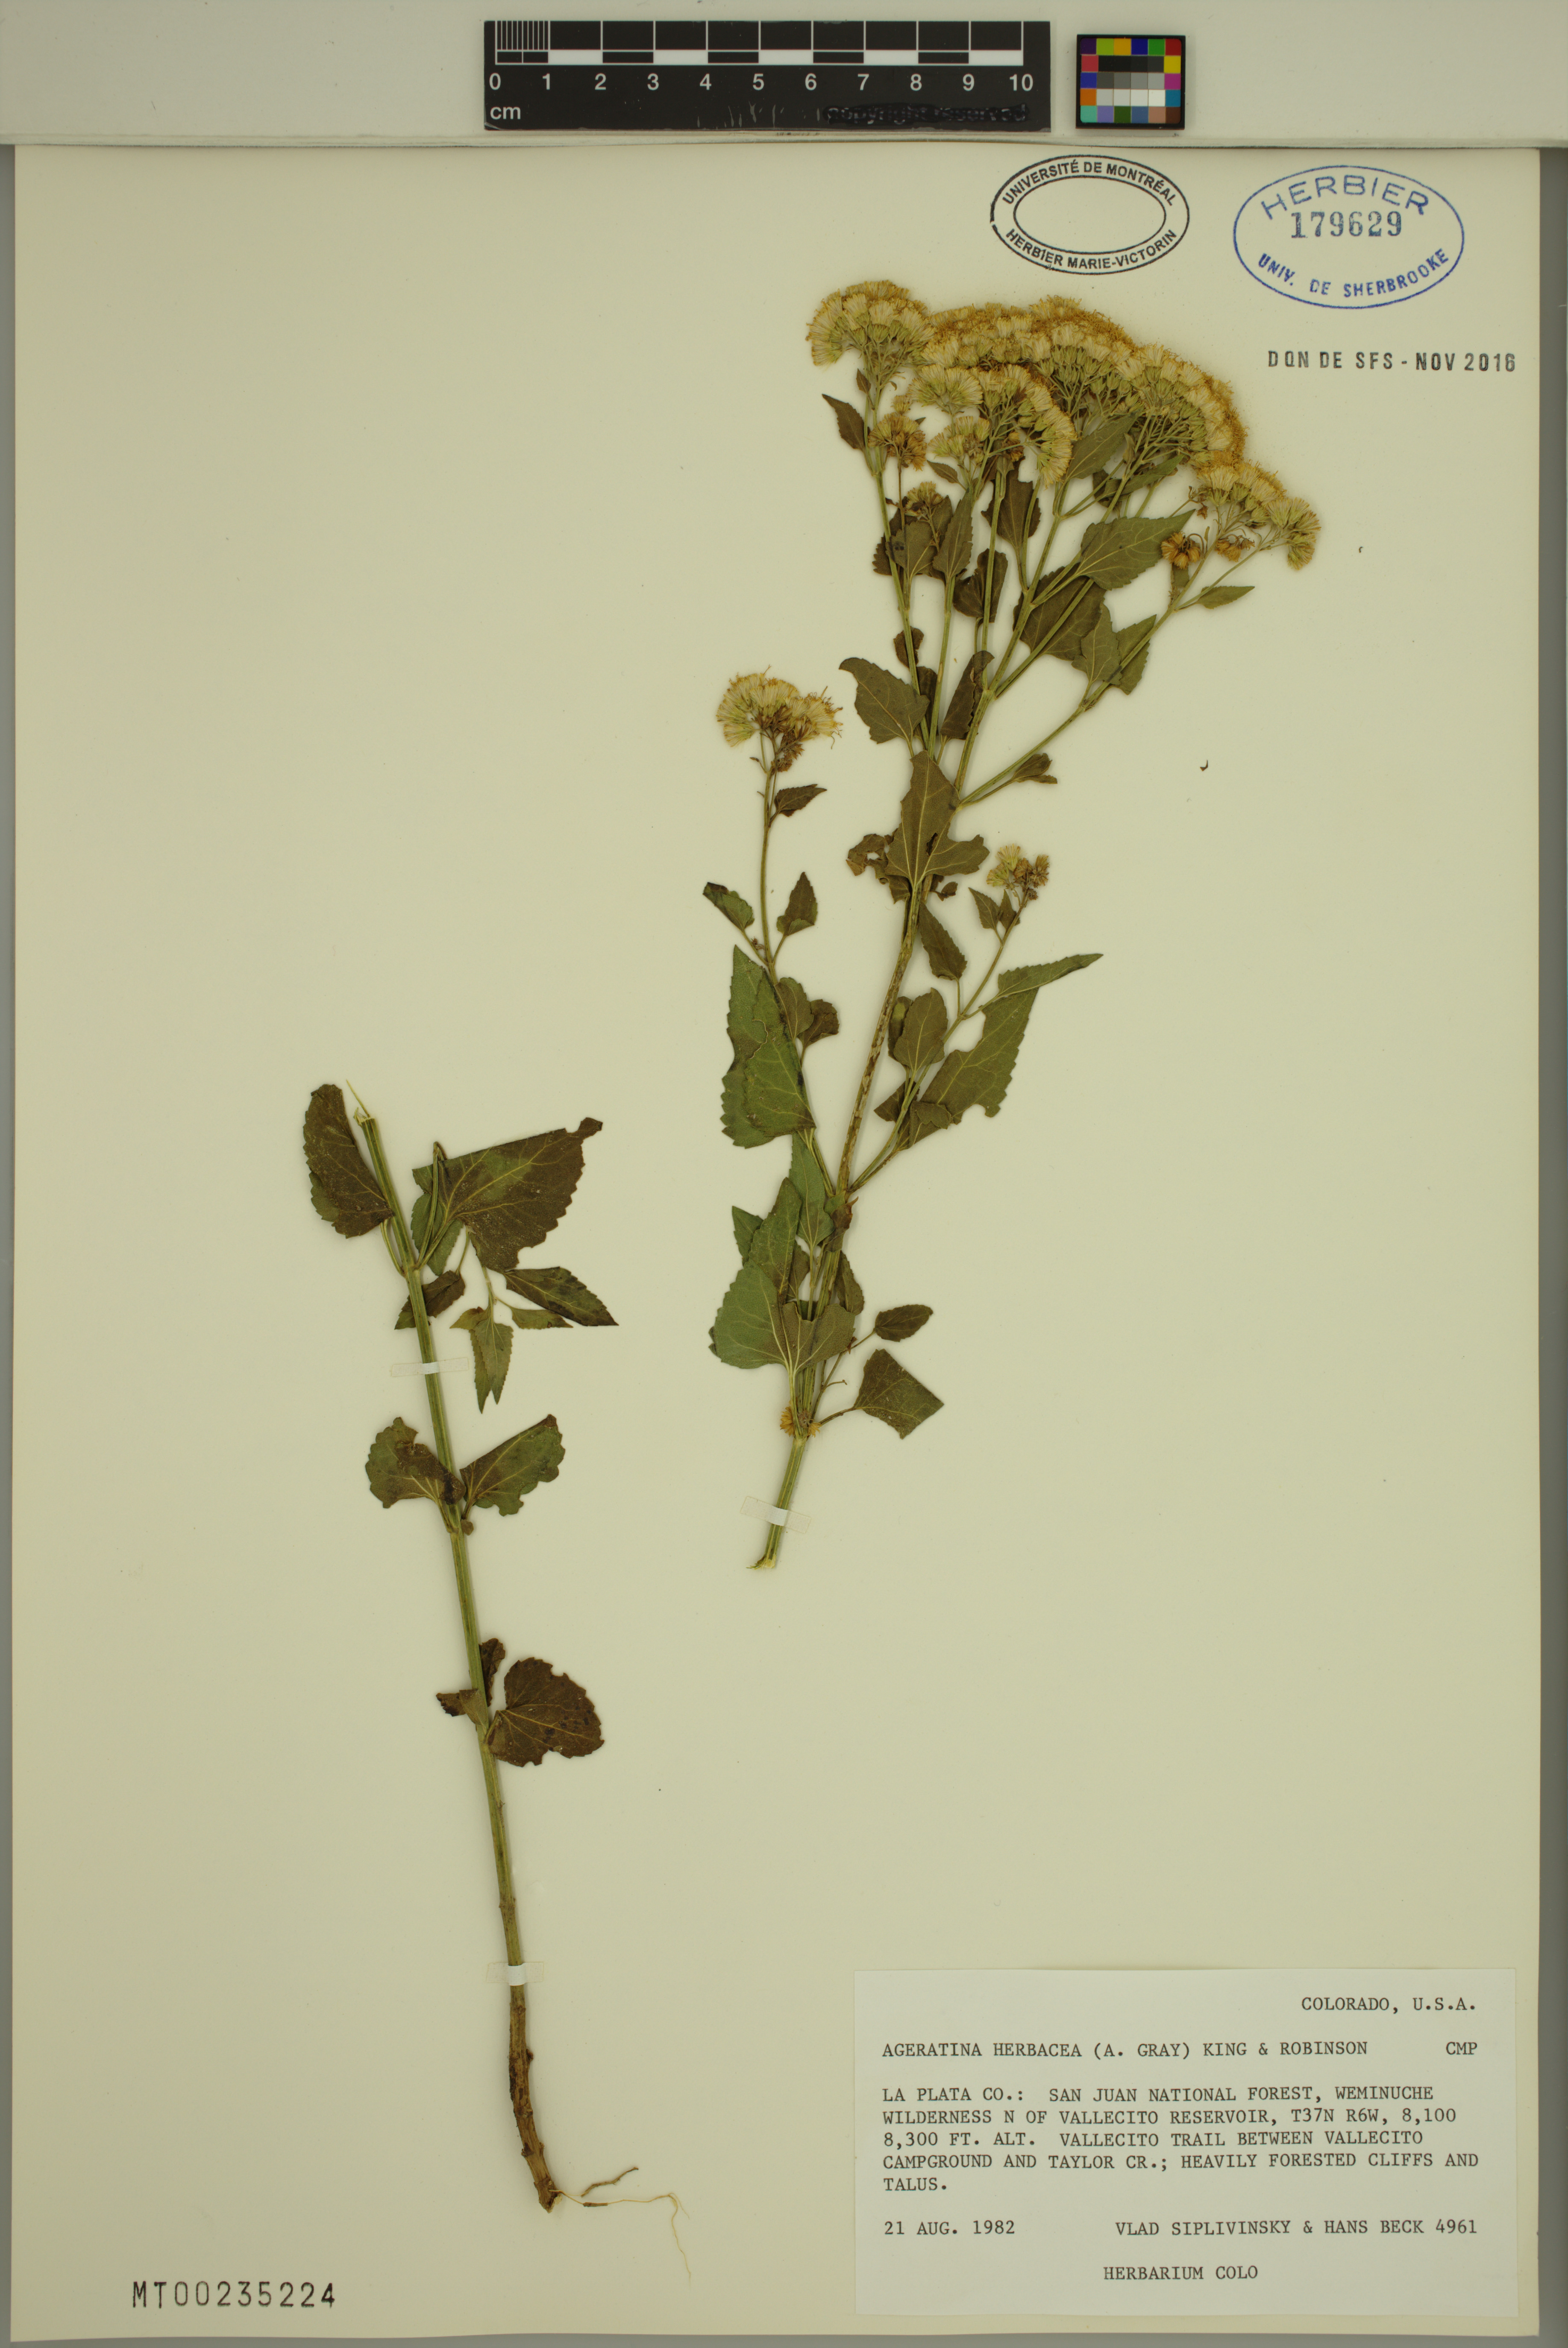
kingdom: Plantae
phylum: Tracheophyta
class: Magnoliopsida
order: Asterales
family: Asteraceae
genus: Ageratina
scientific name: Ageratina herbacea
